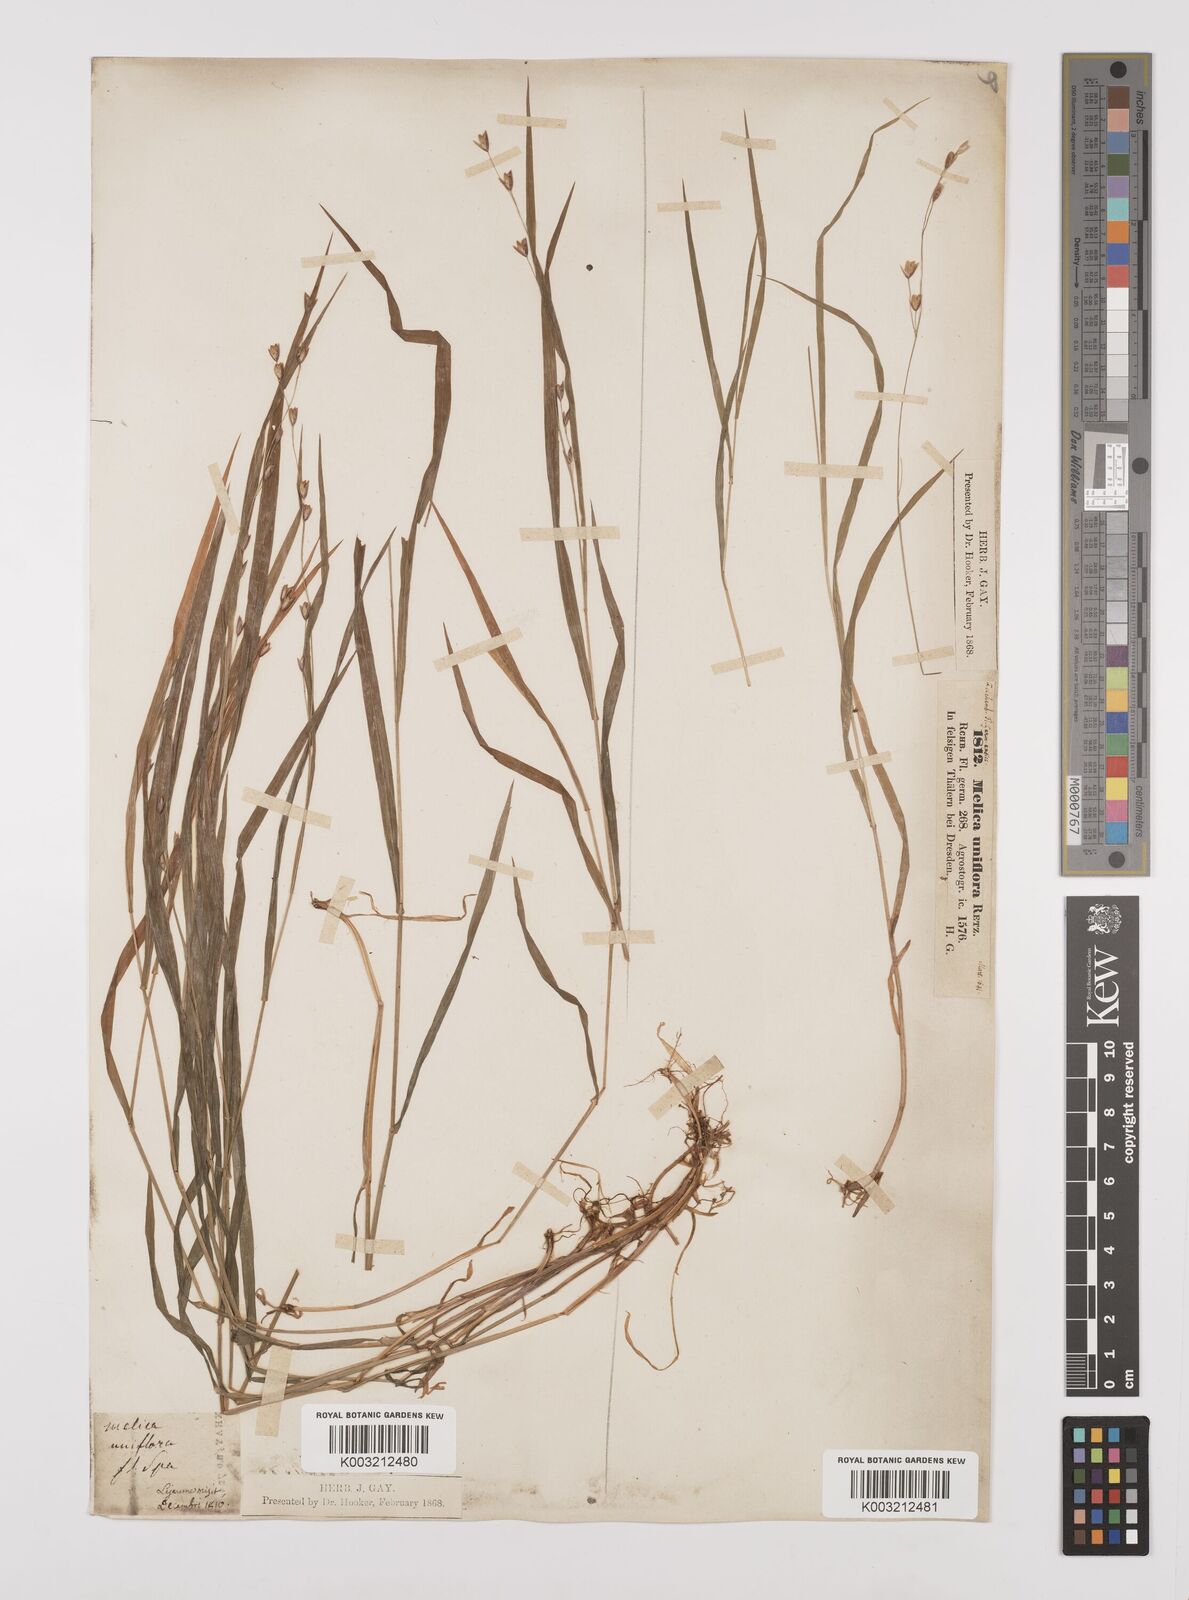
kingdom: Plantae
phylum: Tracheophyta
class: Liliopsida
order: Poales
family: Poaceae
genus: Melica
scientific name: Melica uniflora
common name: Wood melick
